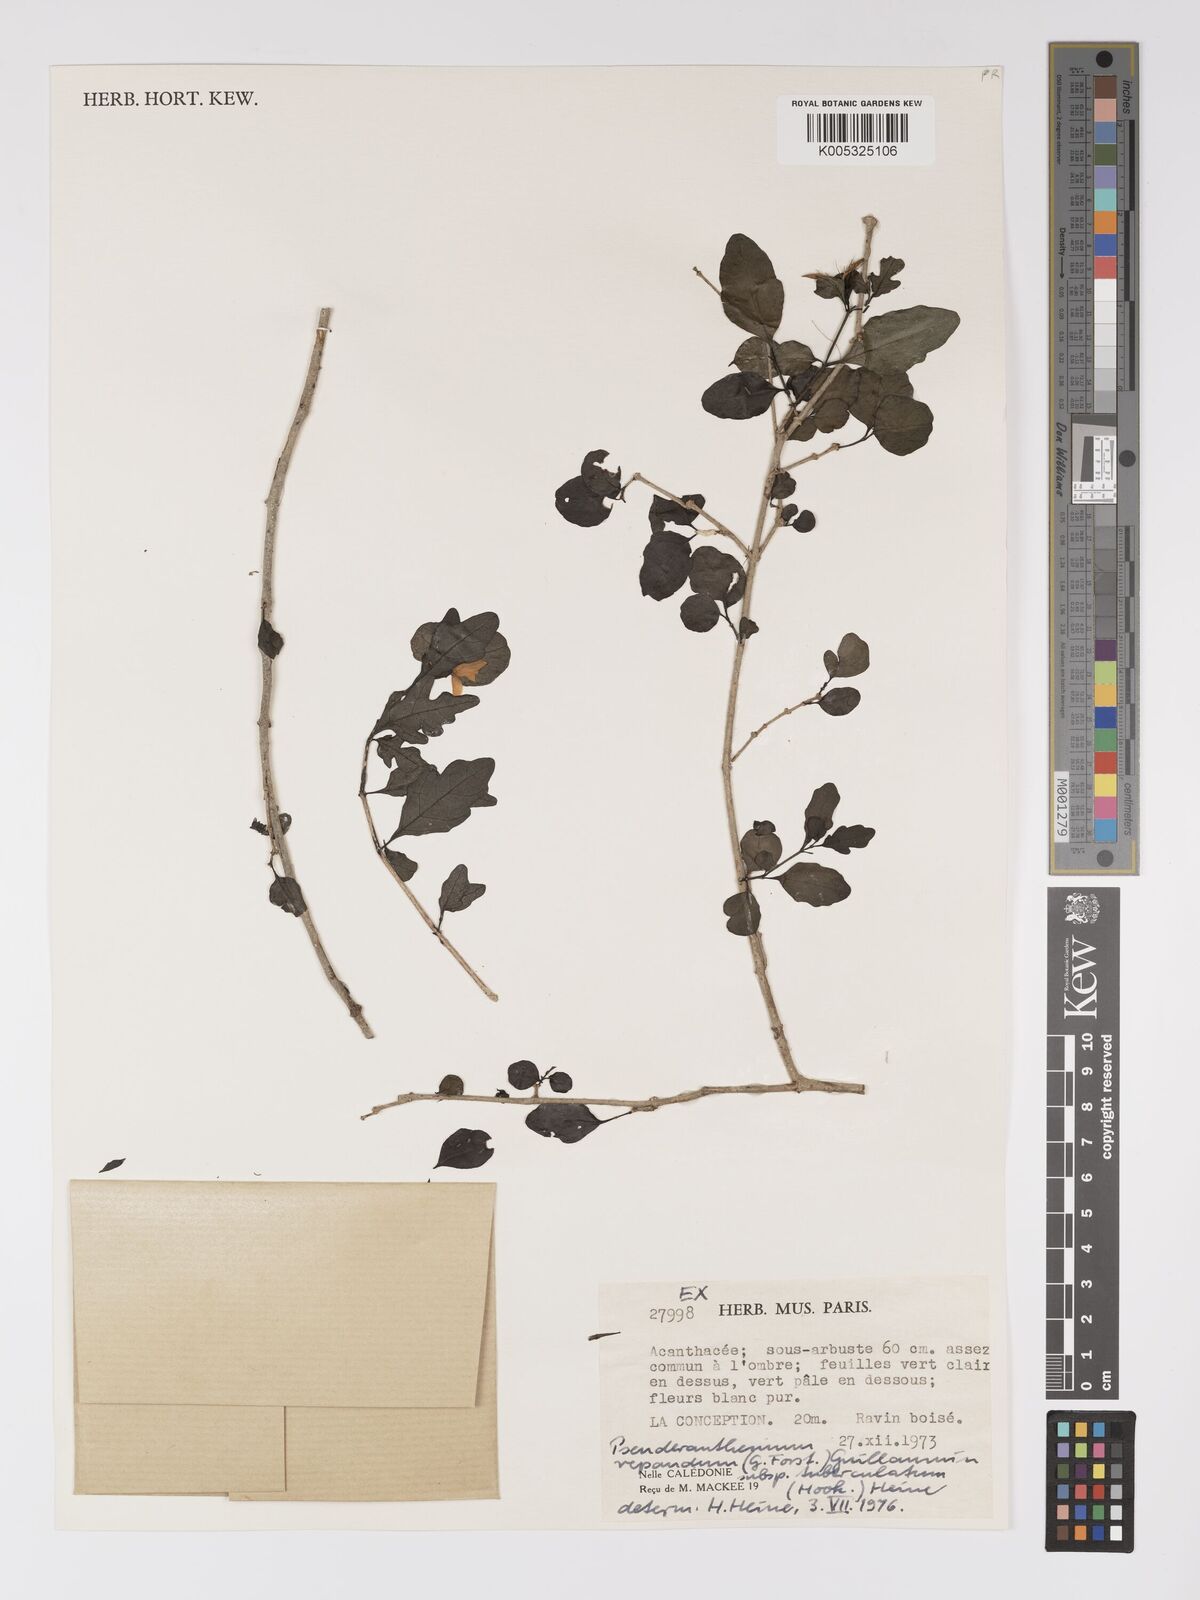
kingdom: Plantae
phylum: Tracheophyta
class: Magnoliopsida
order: Lamiales
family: Acanthaceae
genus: Pseuderanthemum
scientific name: Pseuderanthemum repandum
